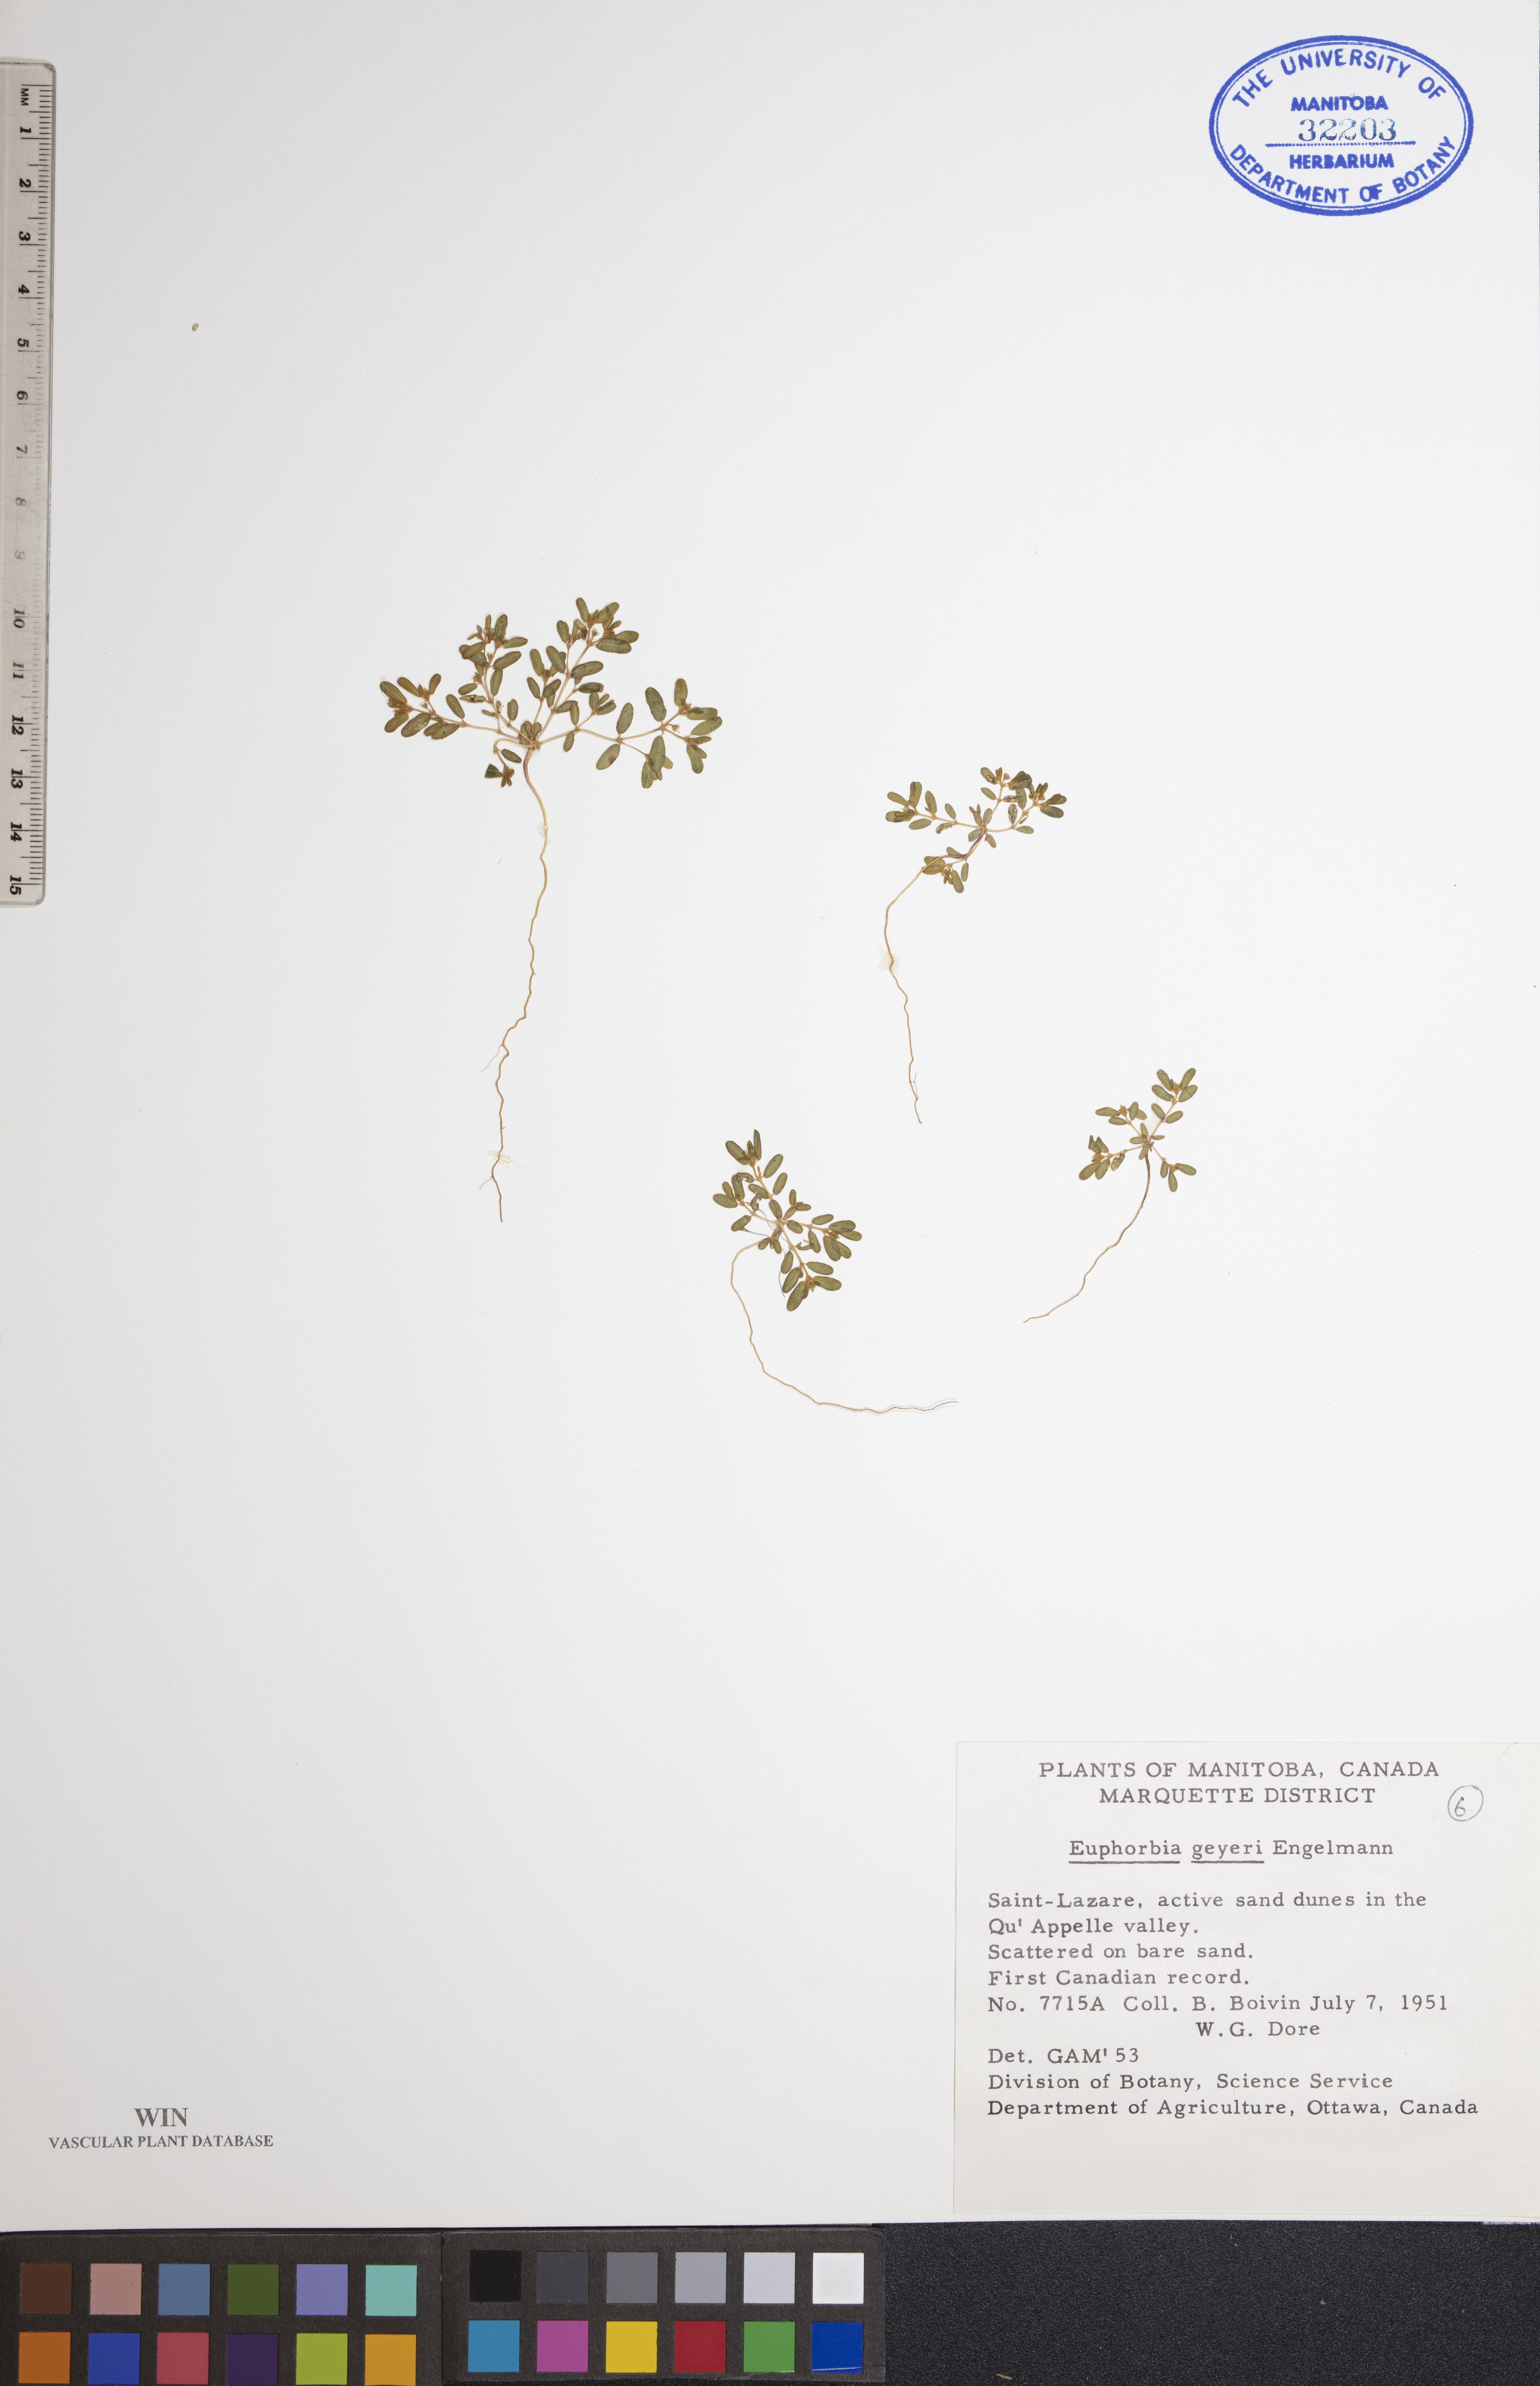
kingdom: Plantae
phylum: Tracheophyta
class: Magnoliopsida
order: Malpighiales
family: Euphorbiaceae
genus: Euphorbia
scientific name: Euphorbia geyeri
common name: Geyer's spurge
